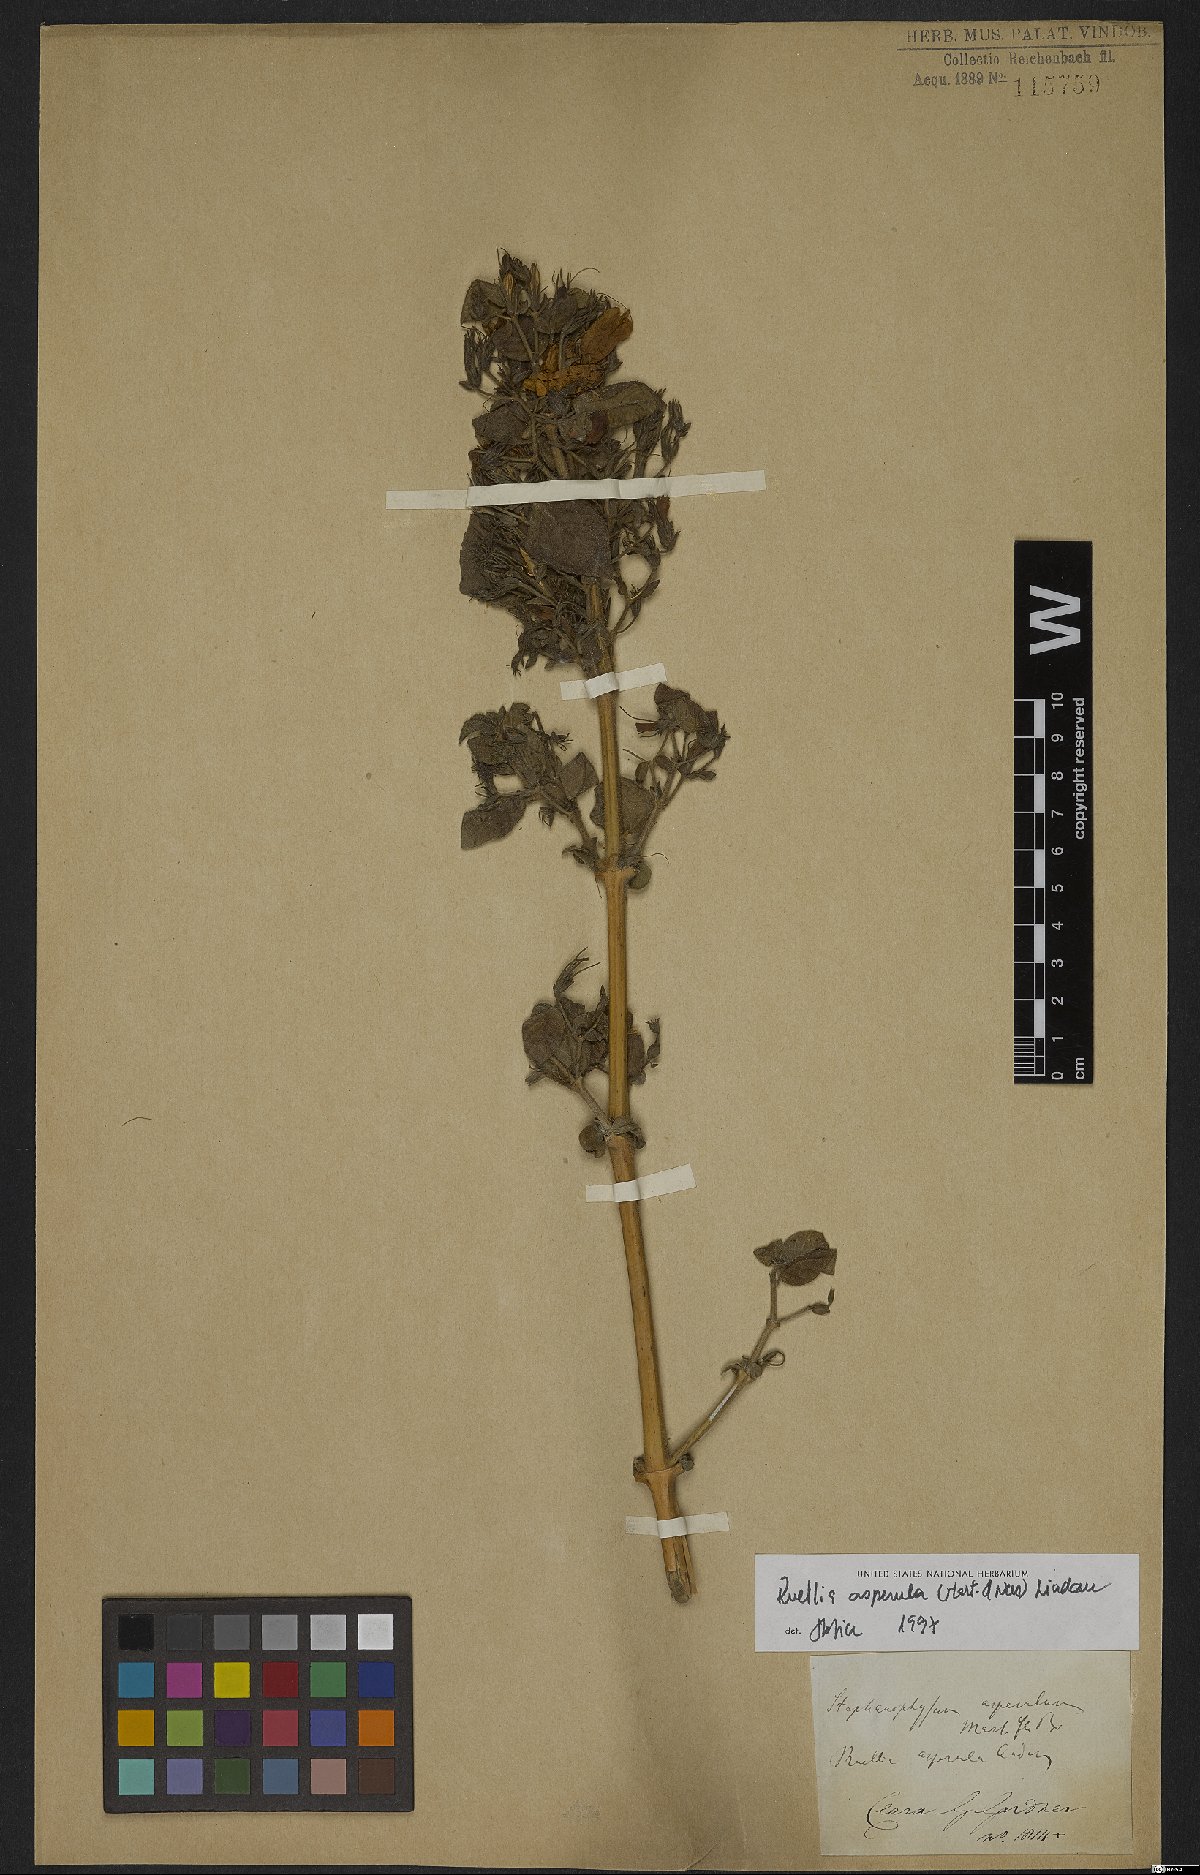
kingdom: Plantae
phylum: Tracheophyta
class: Magnoliopsida
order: Lamiales
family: Acanthaceae
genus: Ruellia
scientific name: Ruellia asperula
